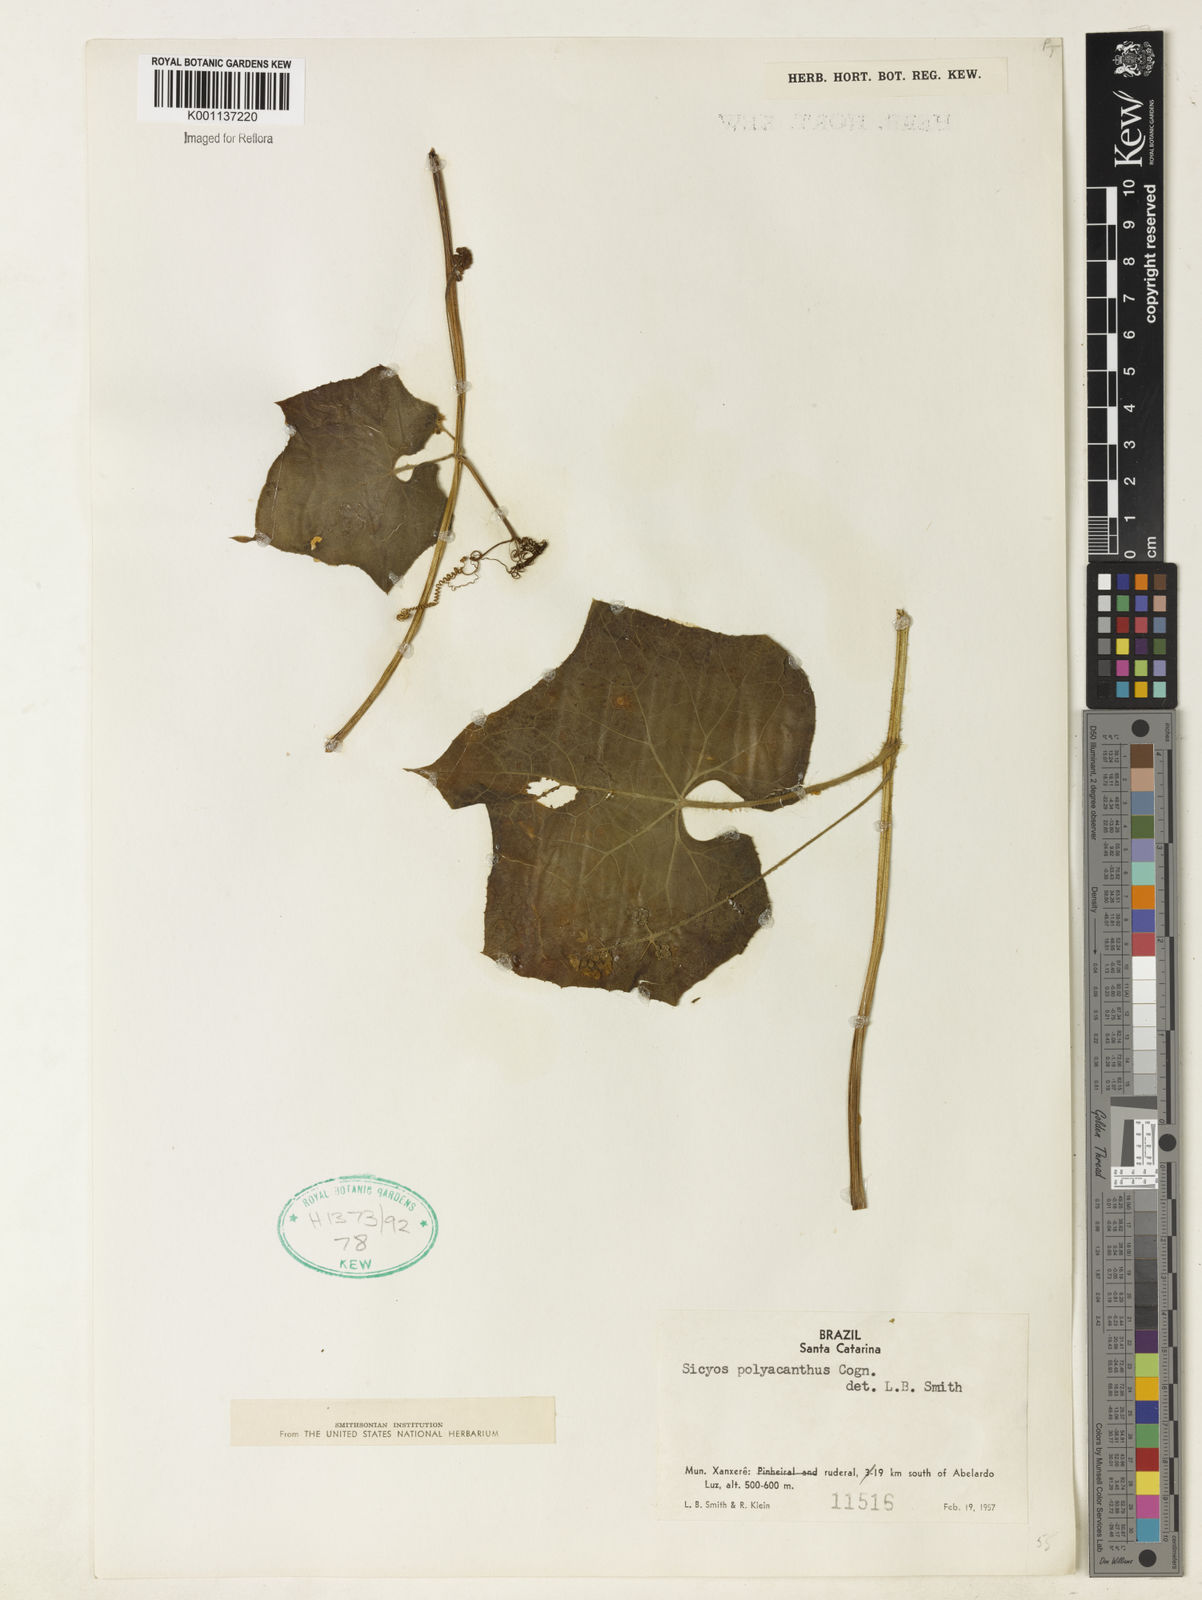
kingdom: Plantae
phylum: Tracheophyta
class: Magnoliopsida
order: Cucurbitales
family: Cucurbitaceae
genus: Sicyos
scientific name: Sicyos polyacanthos
